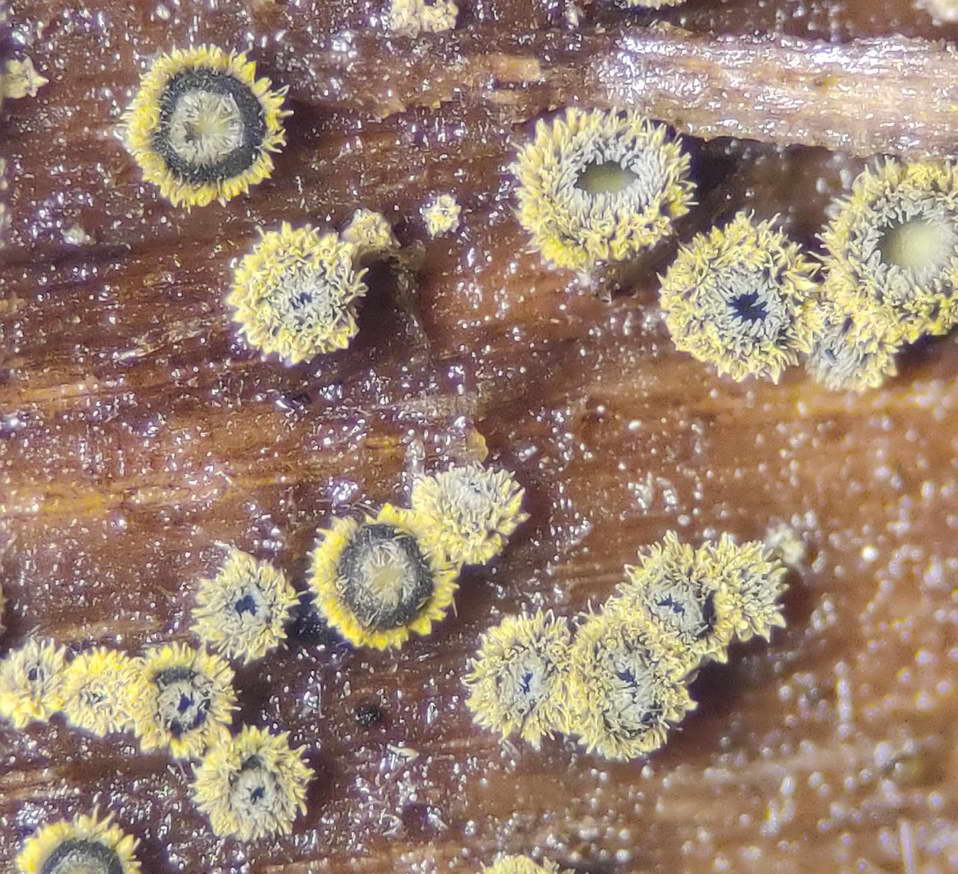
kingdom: Fungi
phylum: Ascomycota
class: Leotiomycetes
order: Helotiales
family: Lachnaceae
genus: Neodasyscypha
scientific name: Neodasyscypha cerina
